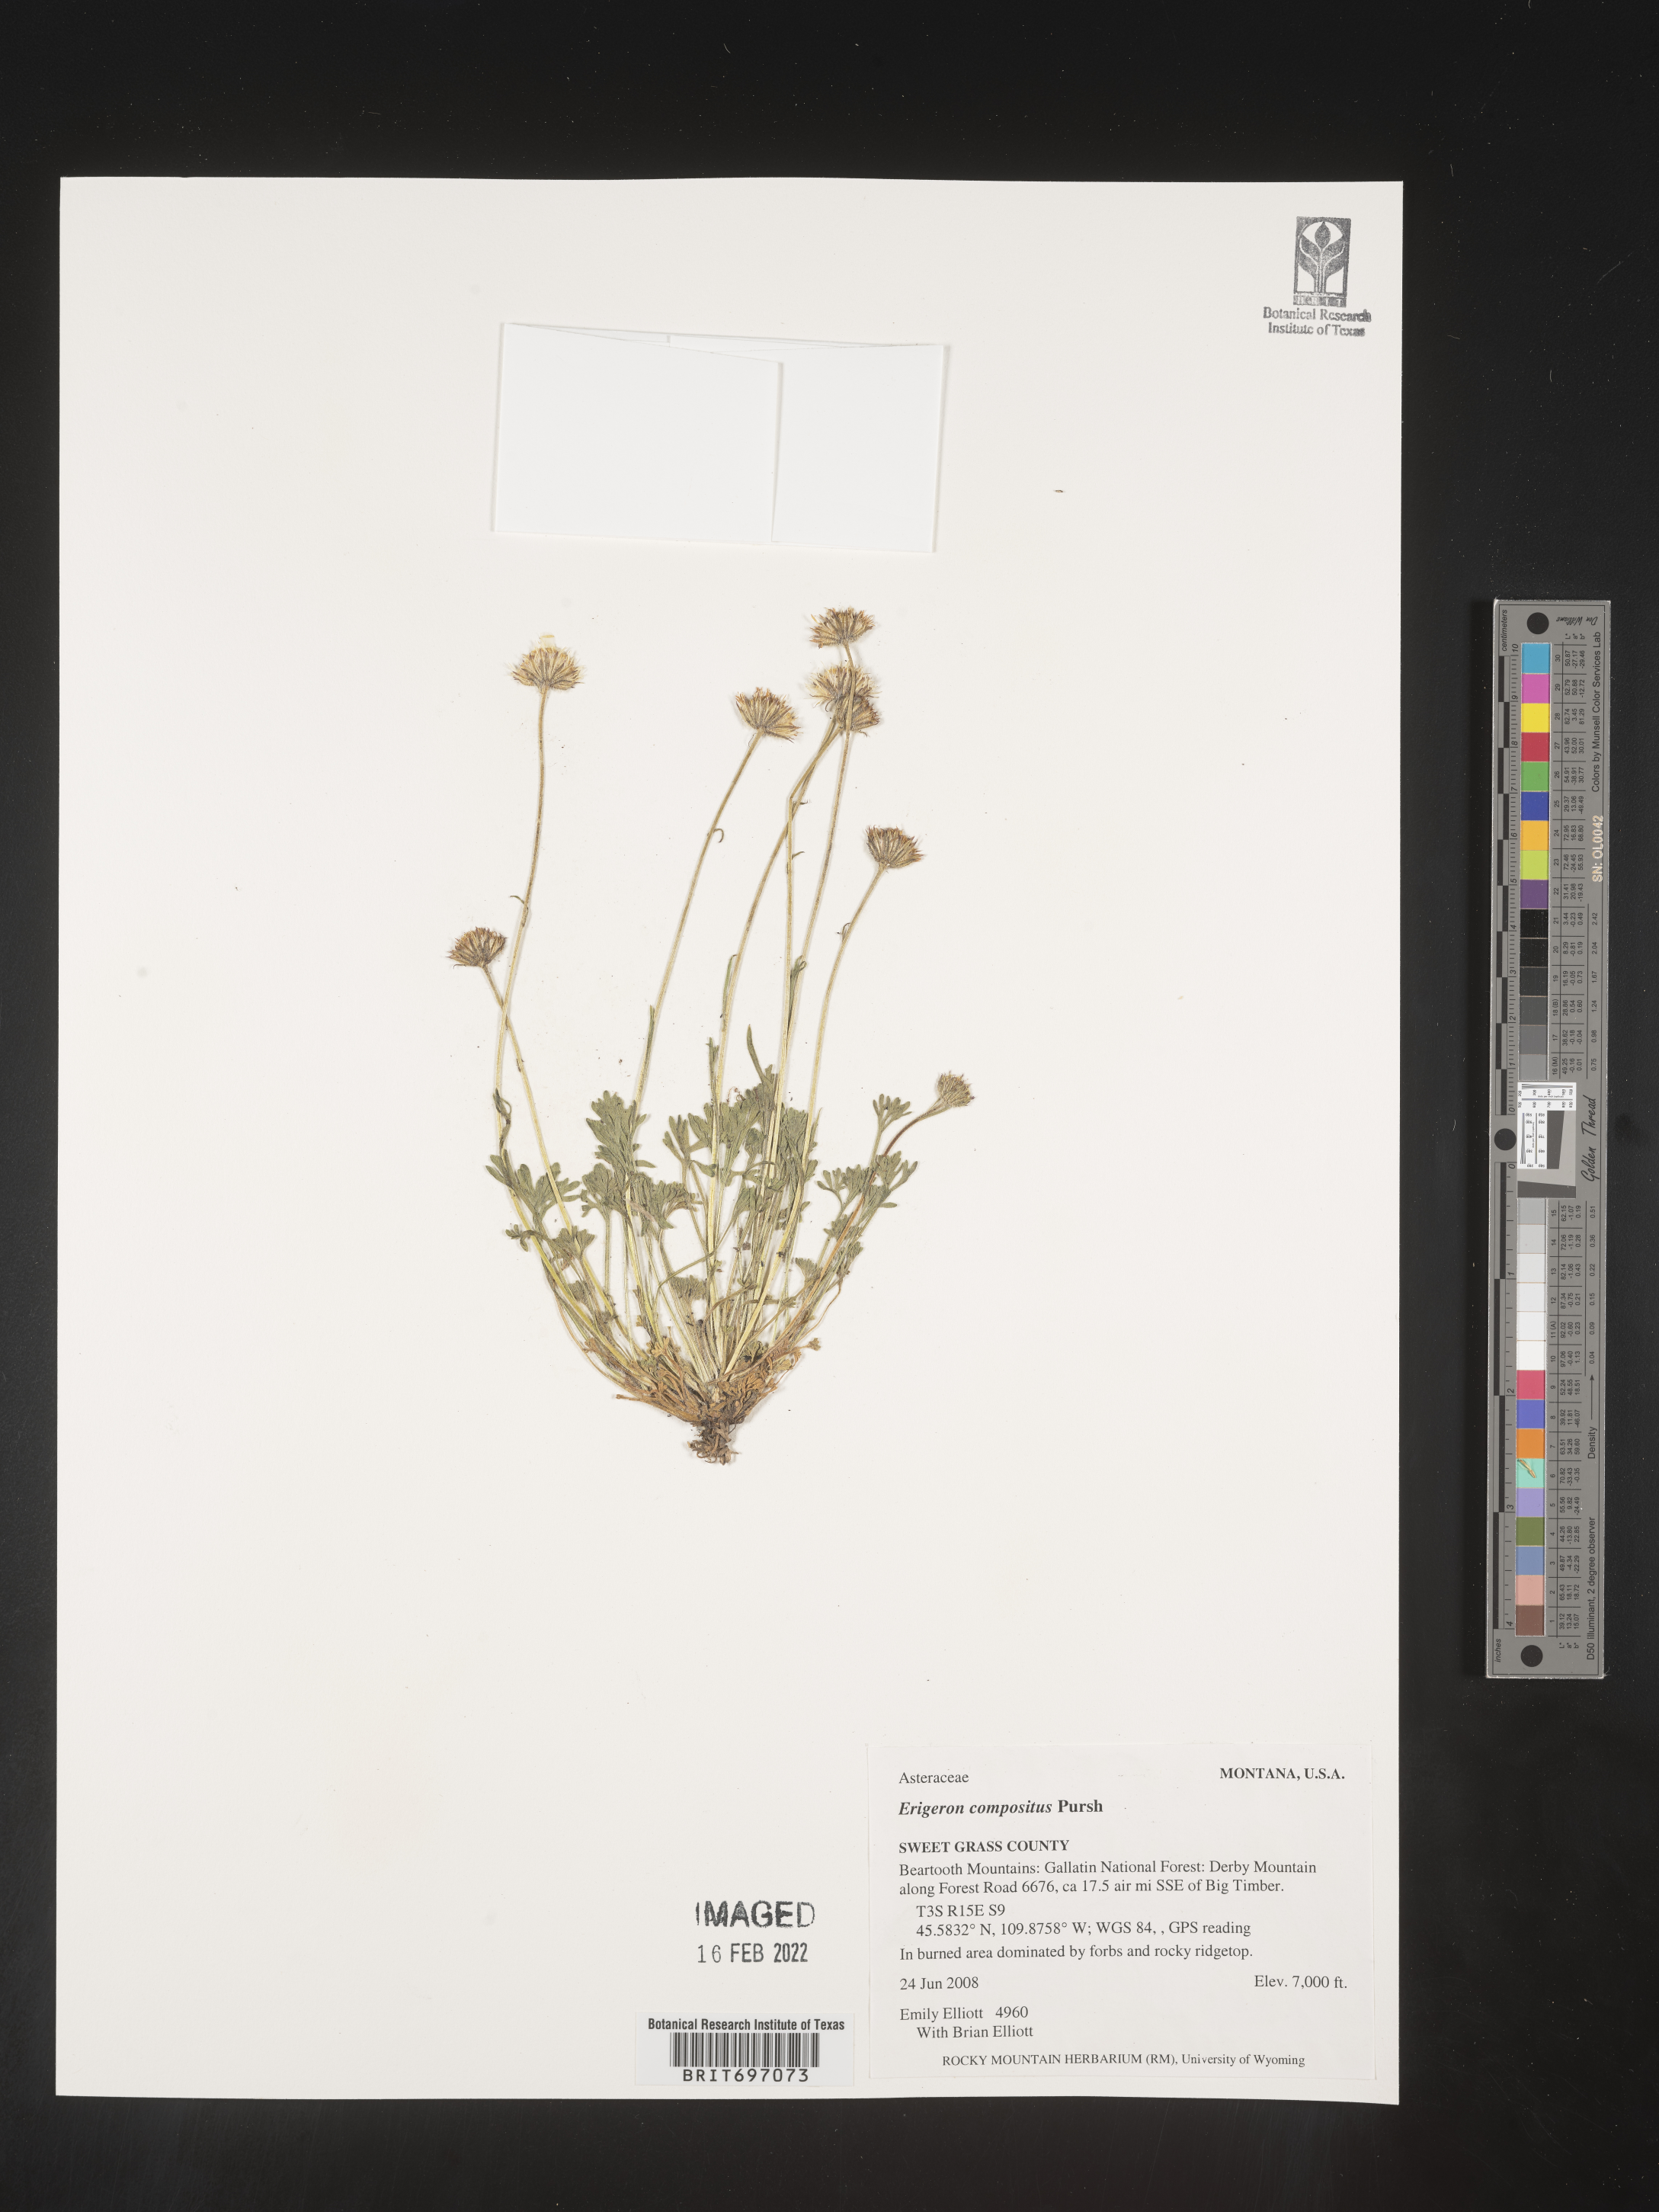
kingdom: Plantae
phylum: Tracheophyta
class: Magnoliopsida
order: Asterales
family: Asteraceae
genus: Erigeron
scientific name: Erigeron compositus
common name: Dwarf mountain fleabane
